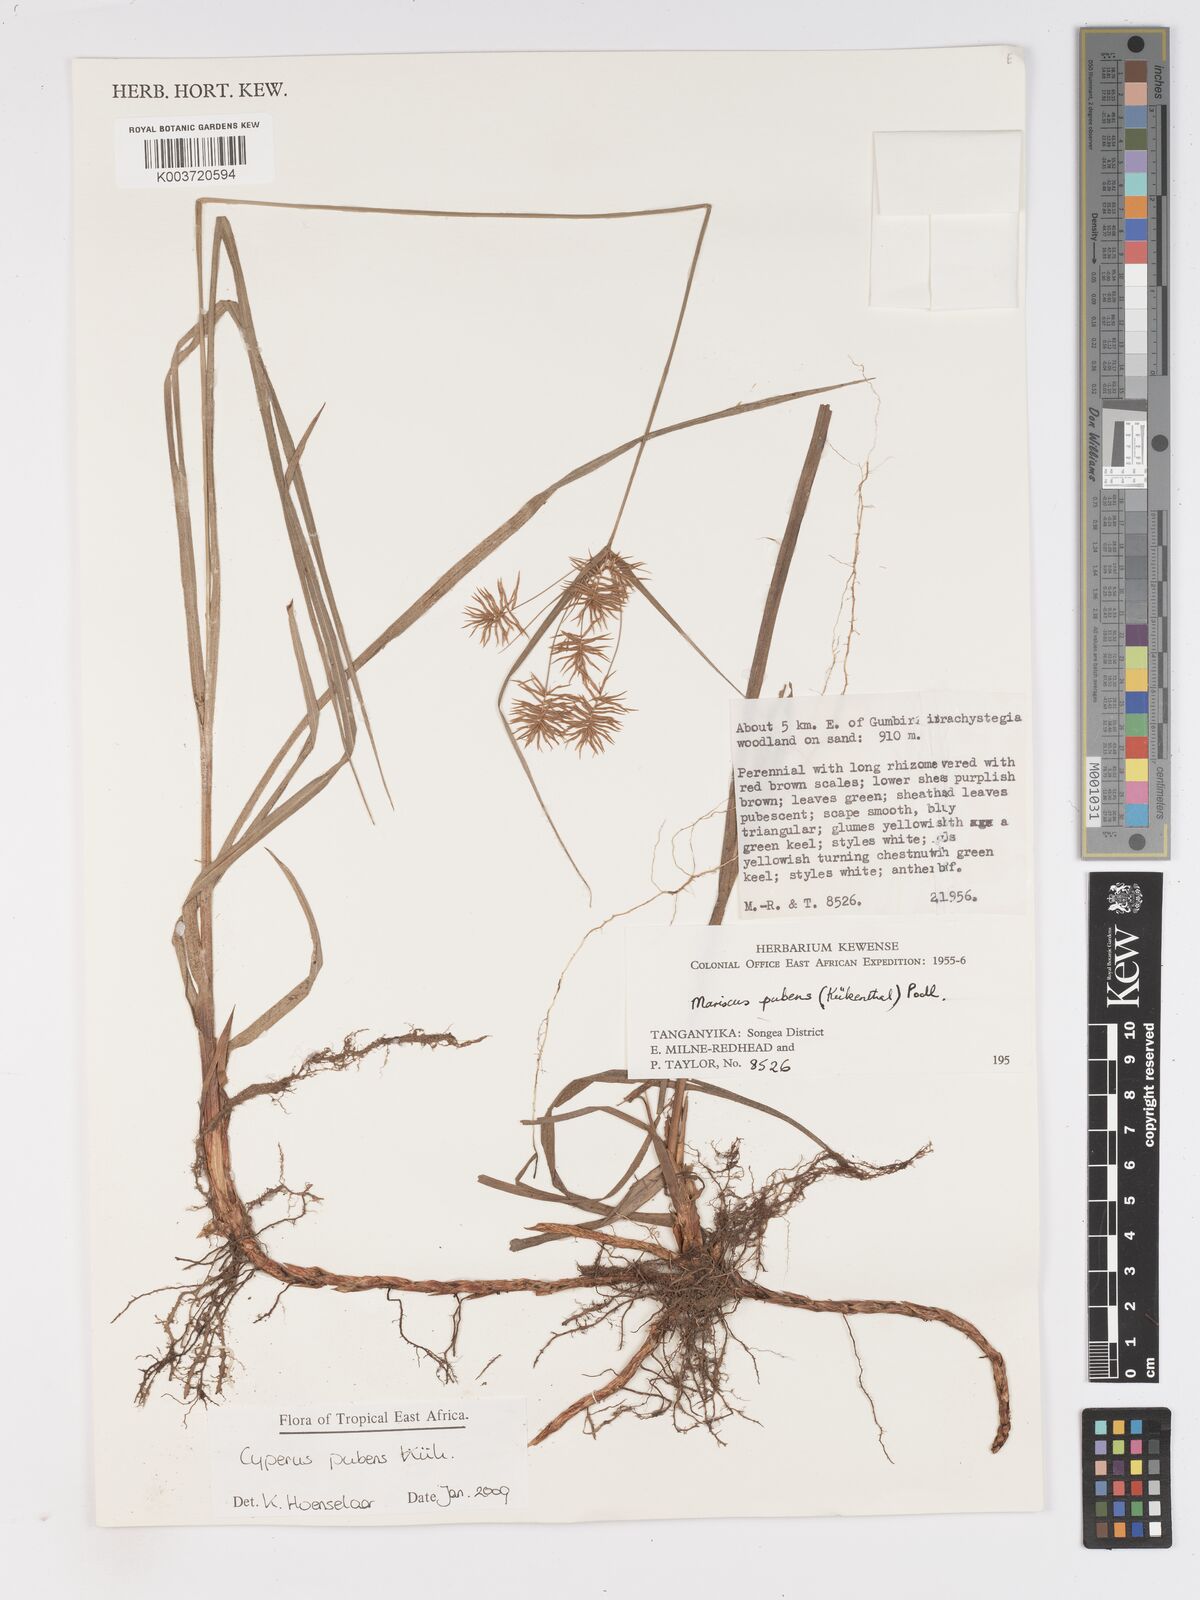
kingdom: Plantae
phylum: Tracheophyta
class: Liliopsida
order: Poales
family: Cyperaceae
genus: Cyperus
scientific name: Cyperus pubens
